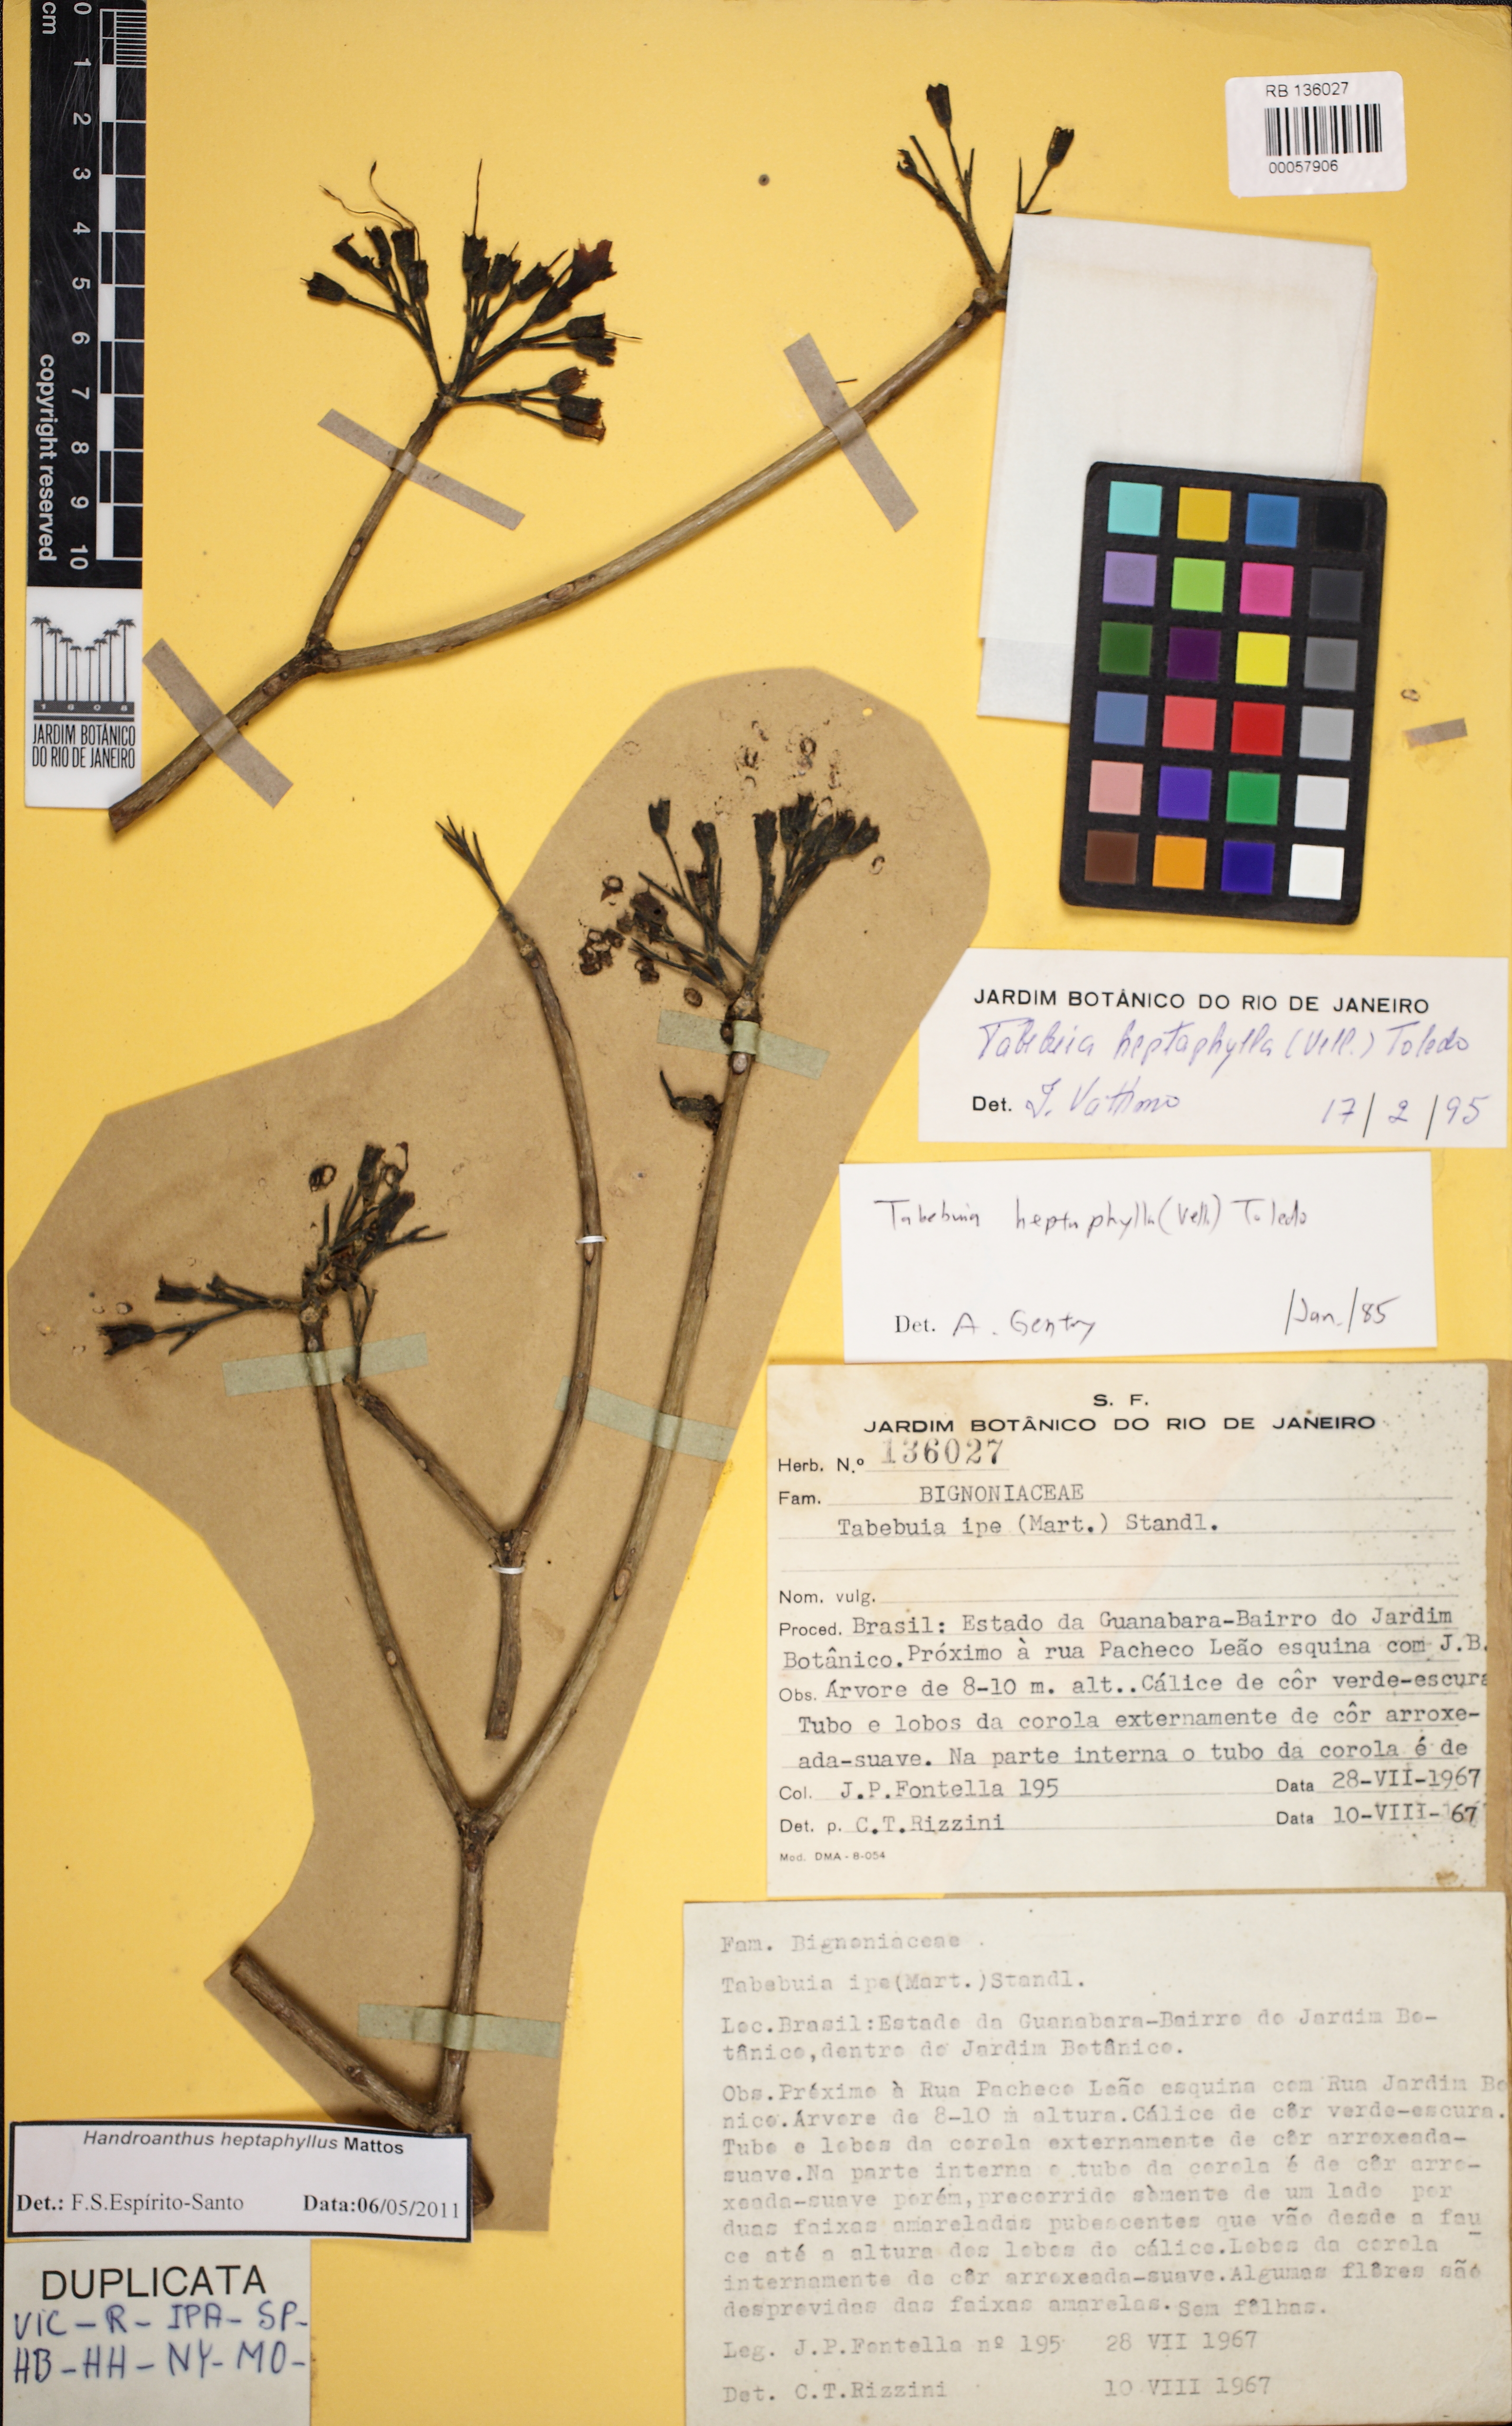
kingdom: Plantae
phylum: Tracheophyta
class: Magnoliopsida
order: Lamiales
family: Bignoniaceae
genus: Handroanthus
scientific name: Handroanthus heptaphyllus
